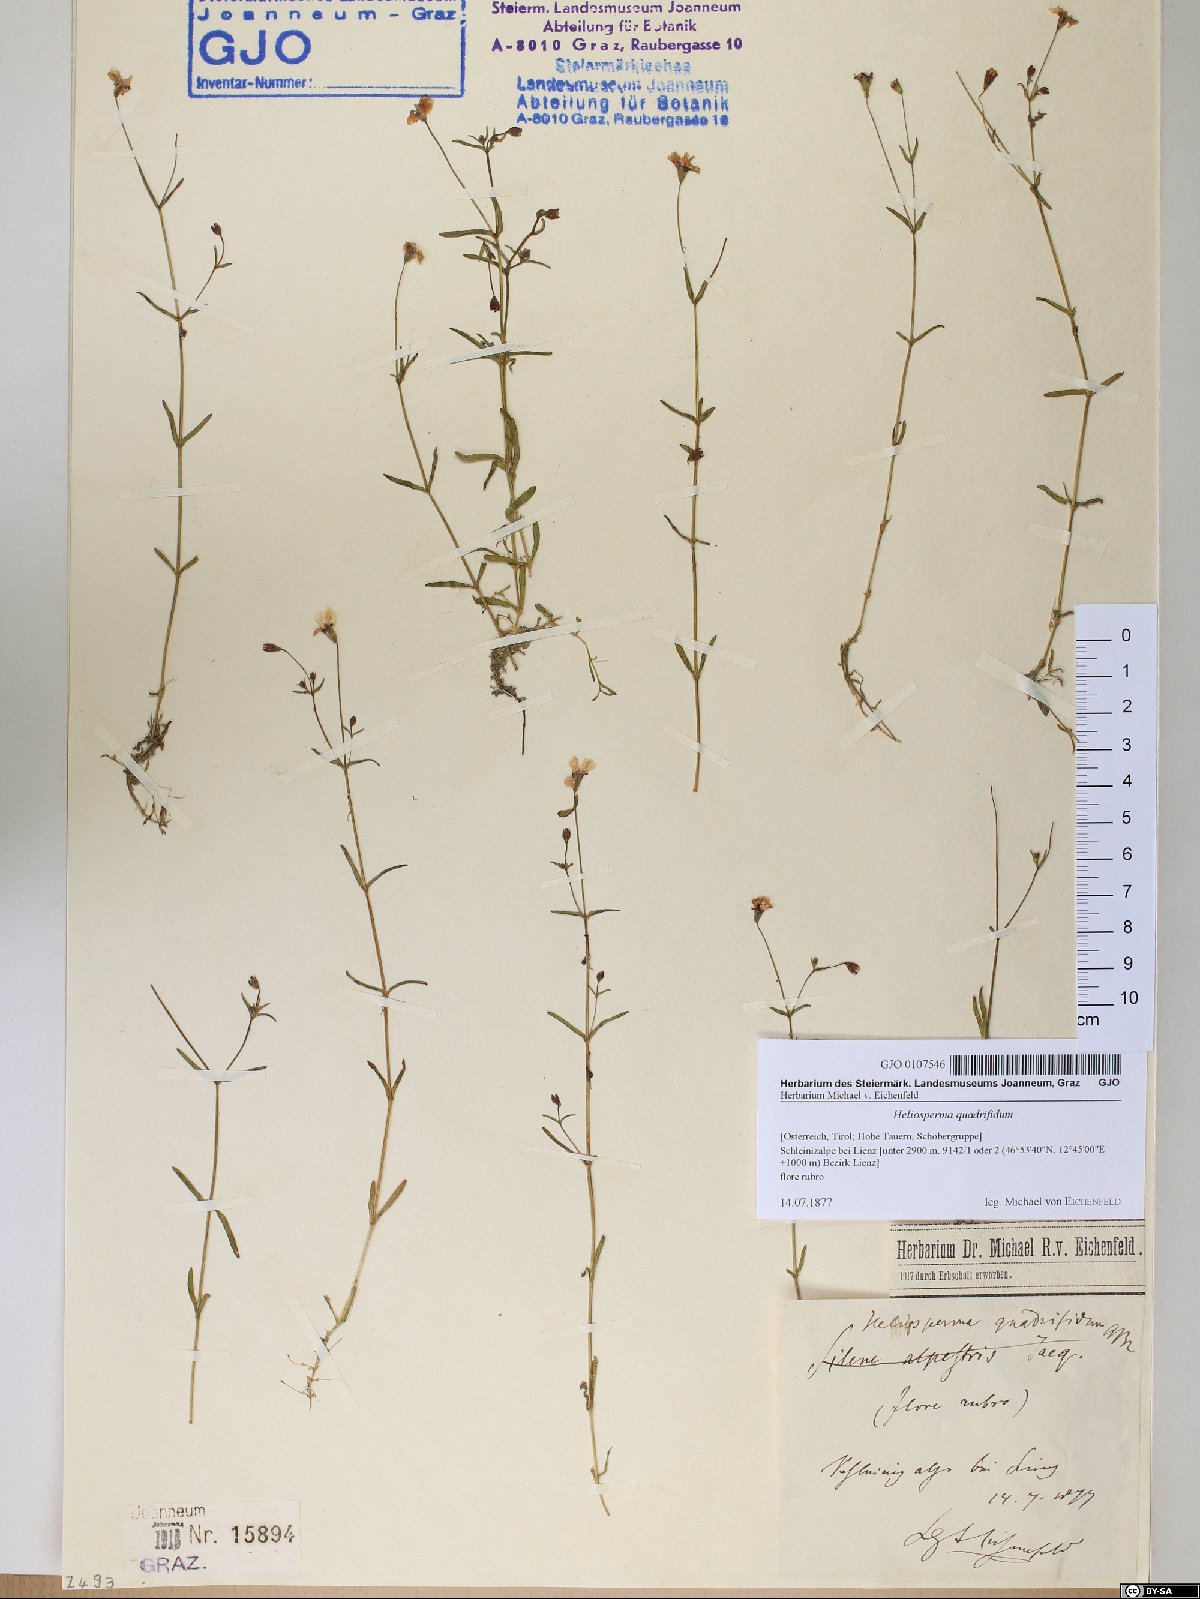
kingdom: Plantae
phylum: Tracheophyta
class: Magnoliopsida
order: Caryophyllales
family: Caryophyllaceae
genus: Heliosperma
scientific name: Heliosperma alpestre
